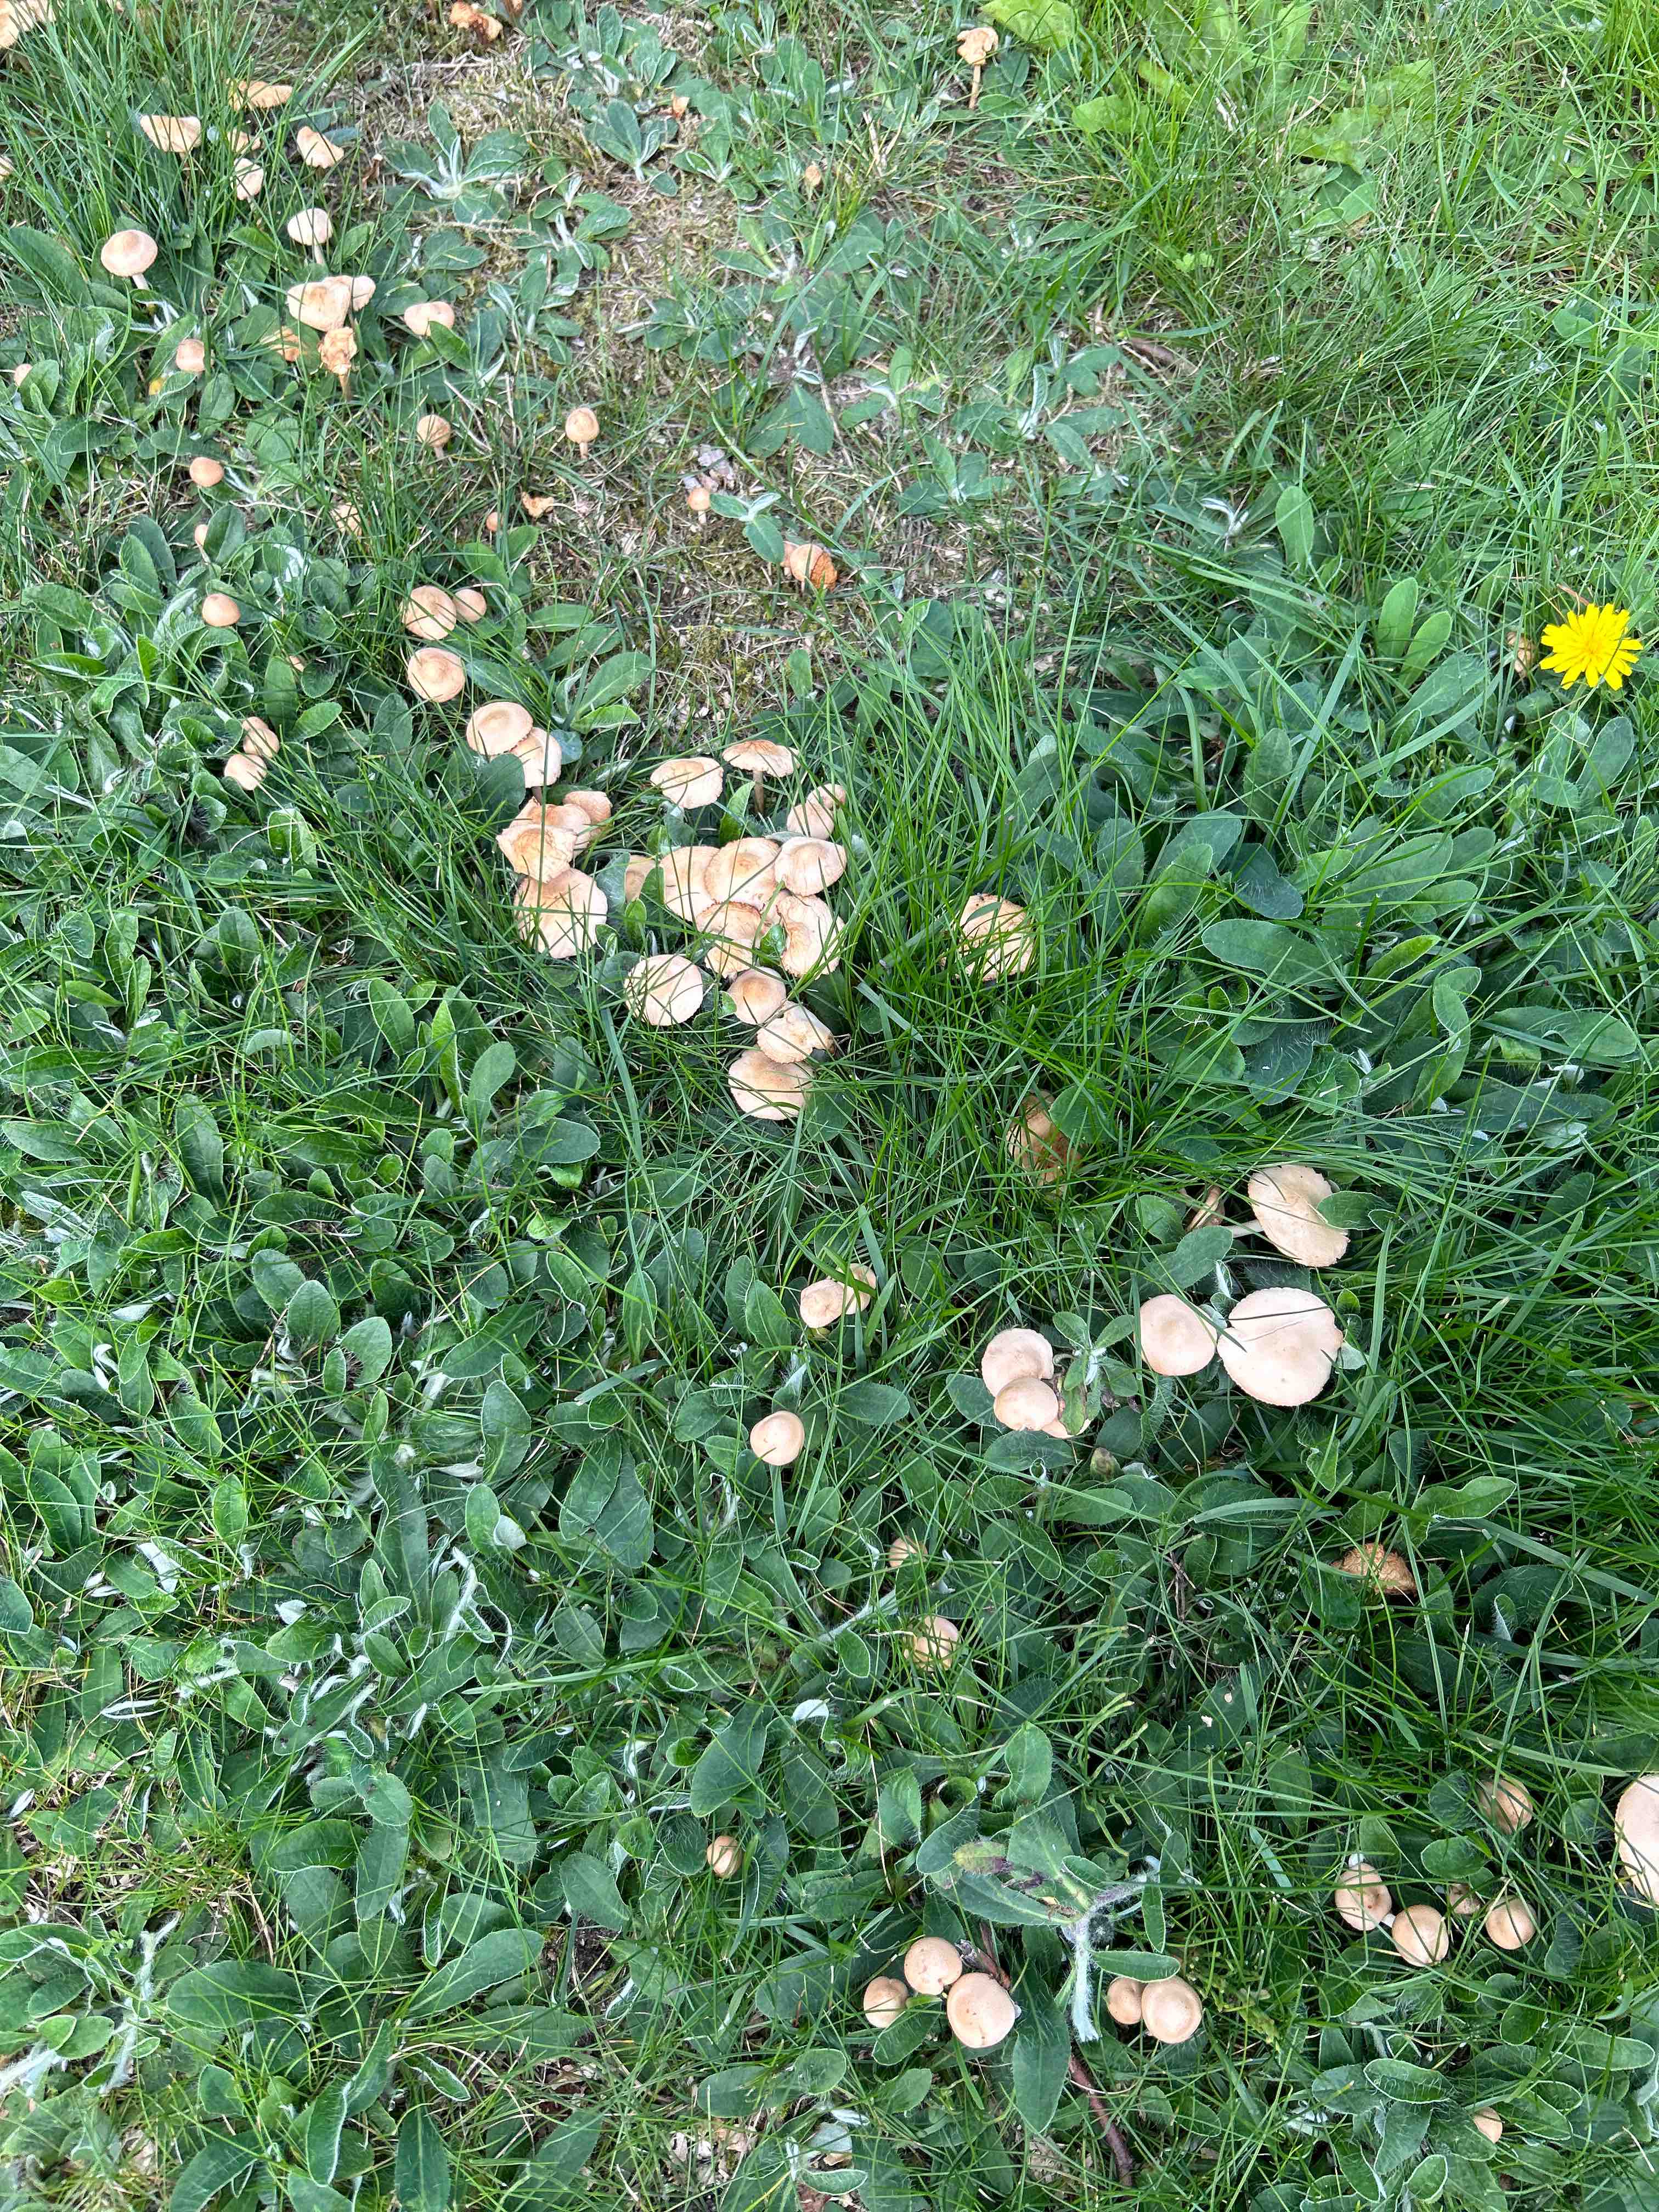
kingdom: Fungi
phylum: Basidiomycota
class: Agaricomycetes
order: Agaricales
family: Marasmiaceae
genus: Marasmius
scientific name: Marasmius oreades
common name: elledans-bruskhat
